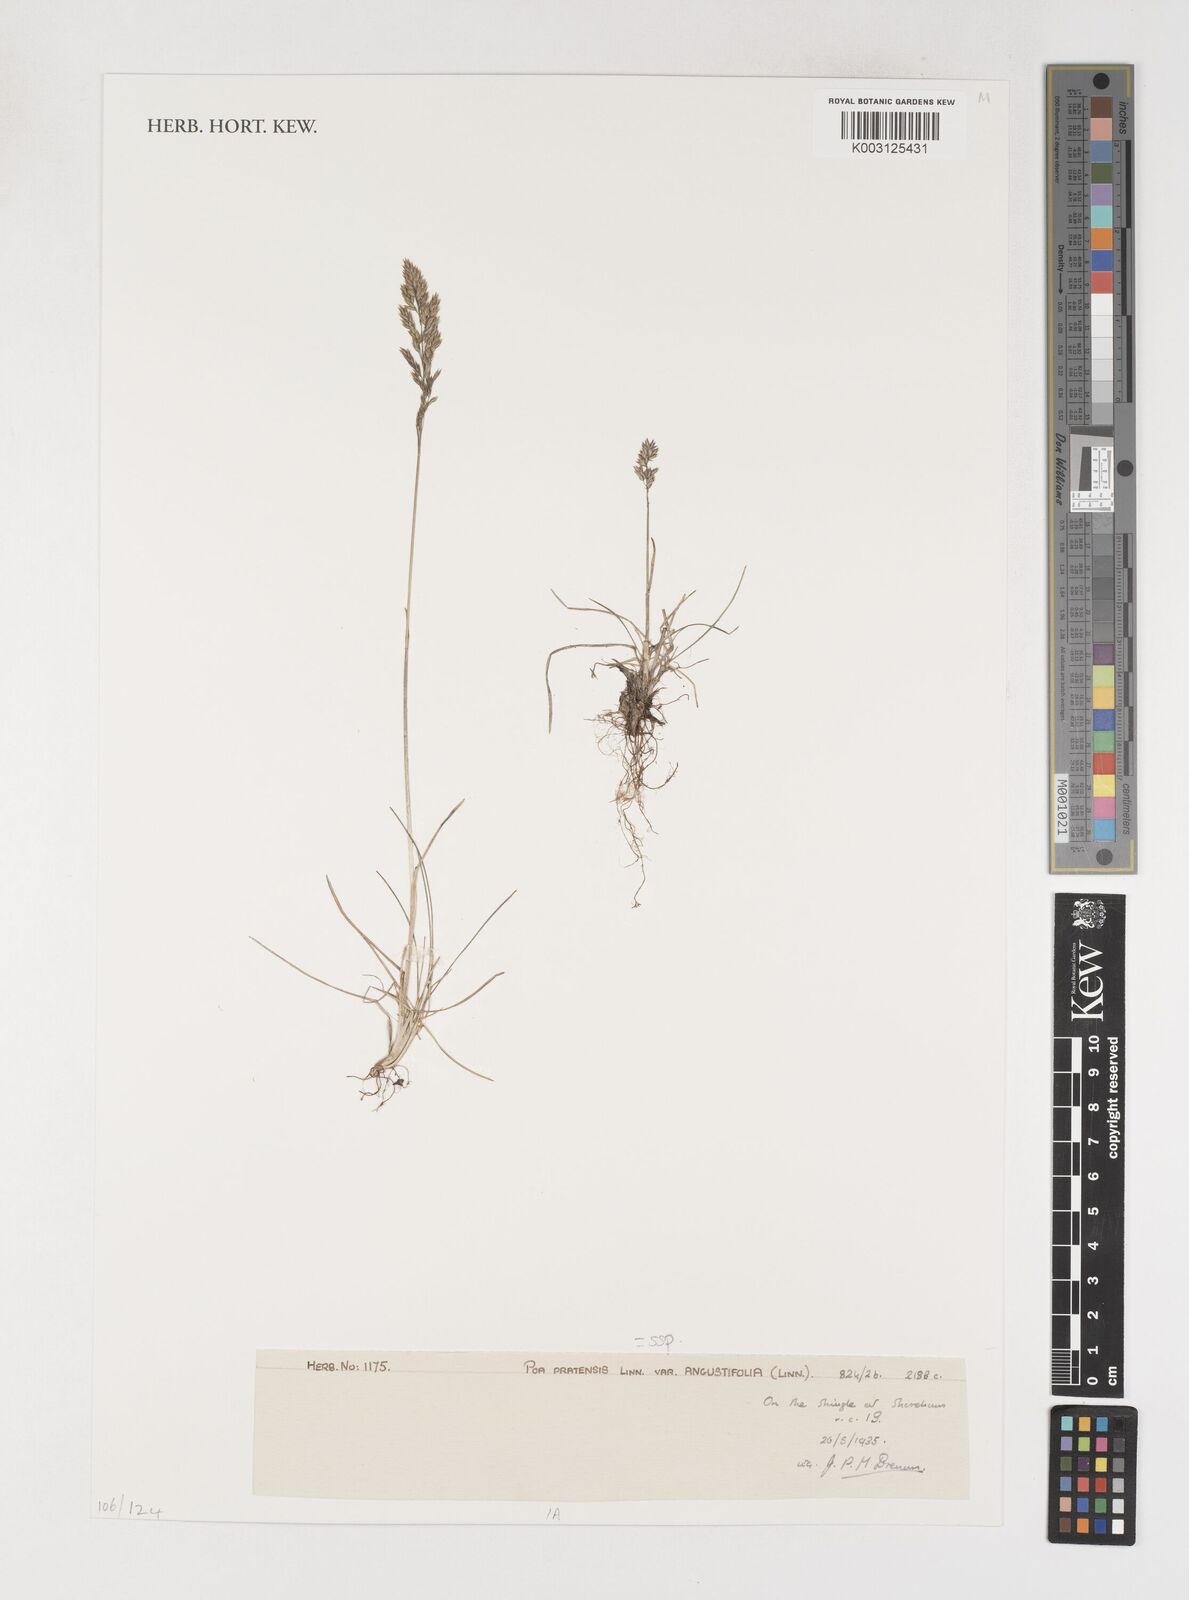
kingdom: Plantae
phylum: Tracheophyta
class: Liliopsida
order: Poales
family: Poaceae
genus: Poa
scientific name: Poa angustifolia
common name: Narrow-leaved meadow-grass
